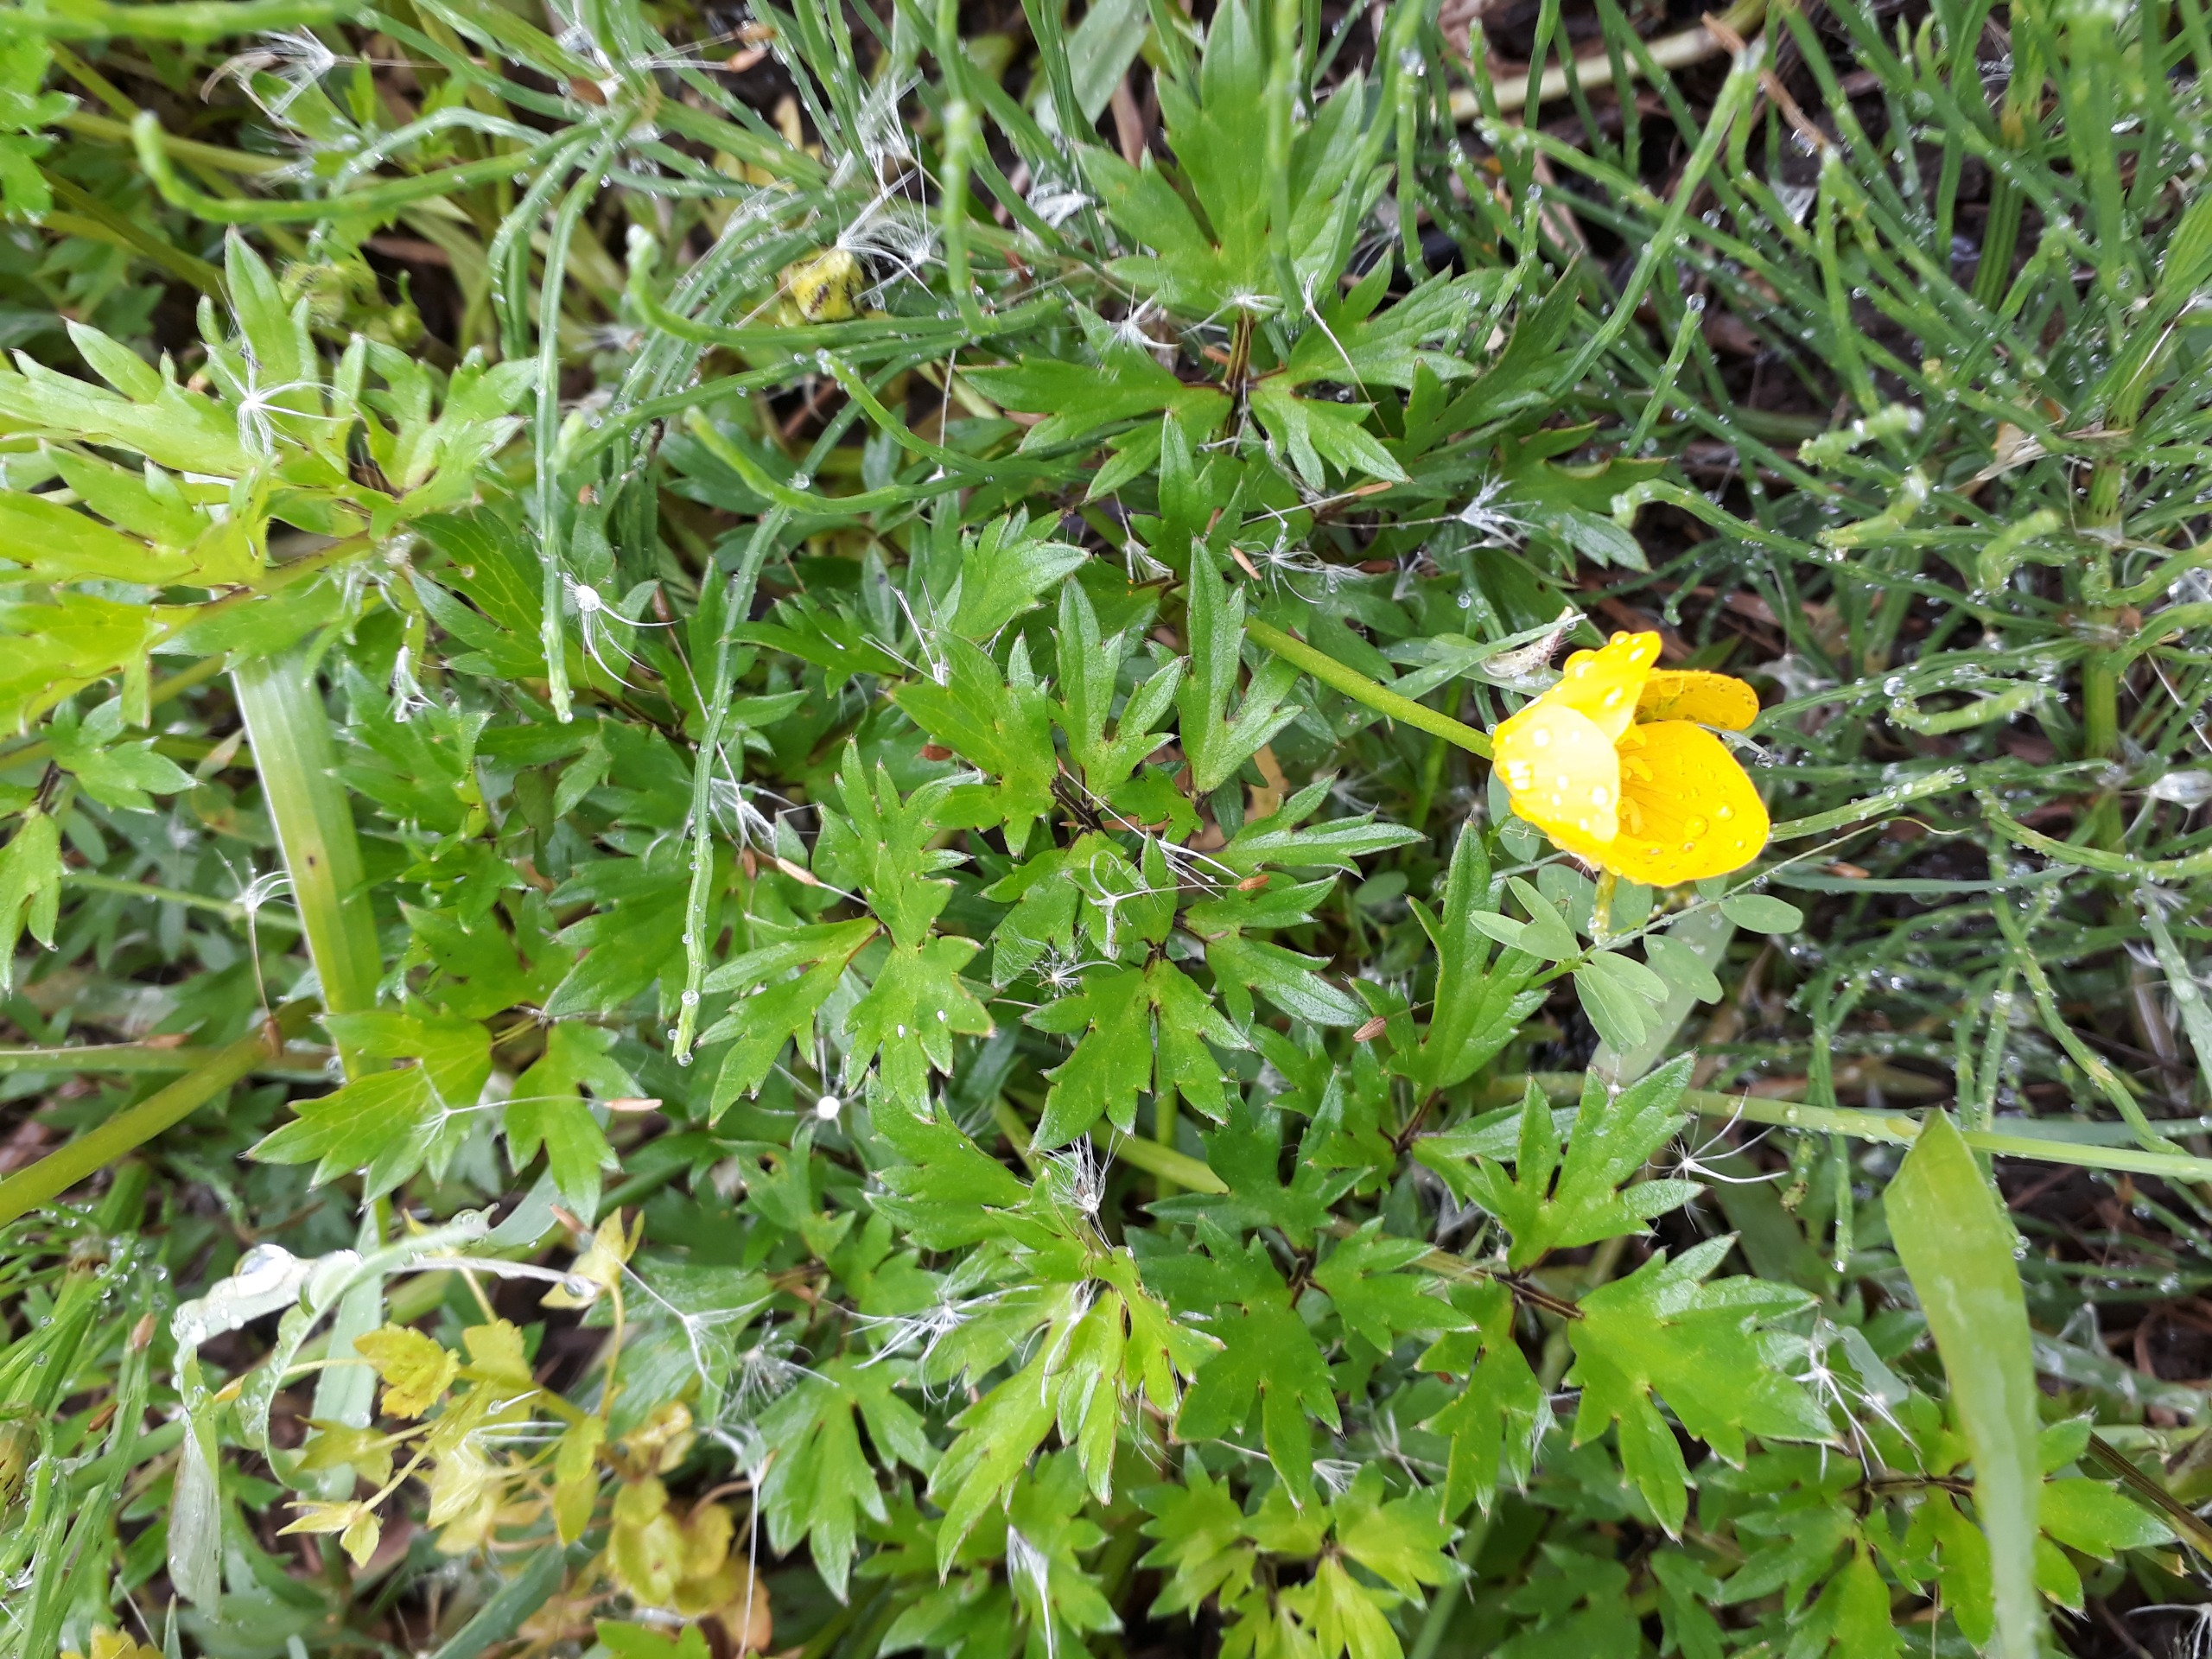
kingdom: Plantae
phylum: Tracheophyta
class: Magnoliopsida
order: Ranunculales
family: Ranunculaceae
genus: Ranunculus
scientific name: Ranunculus repens
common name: Lav ranunkel
